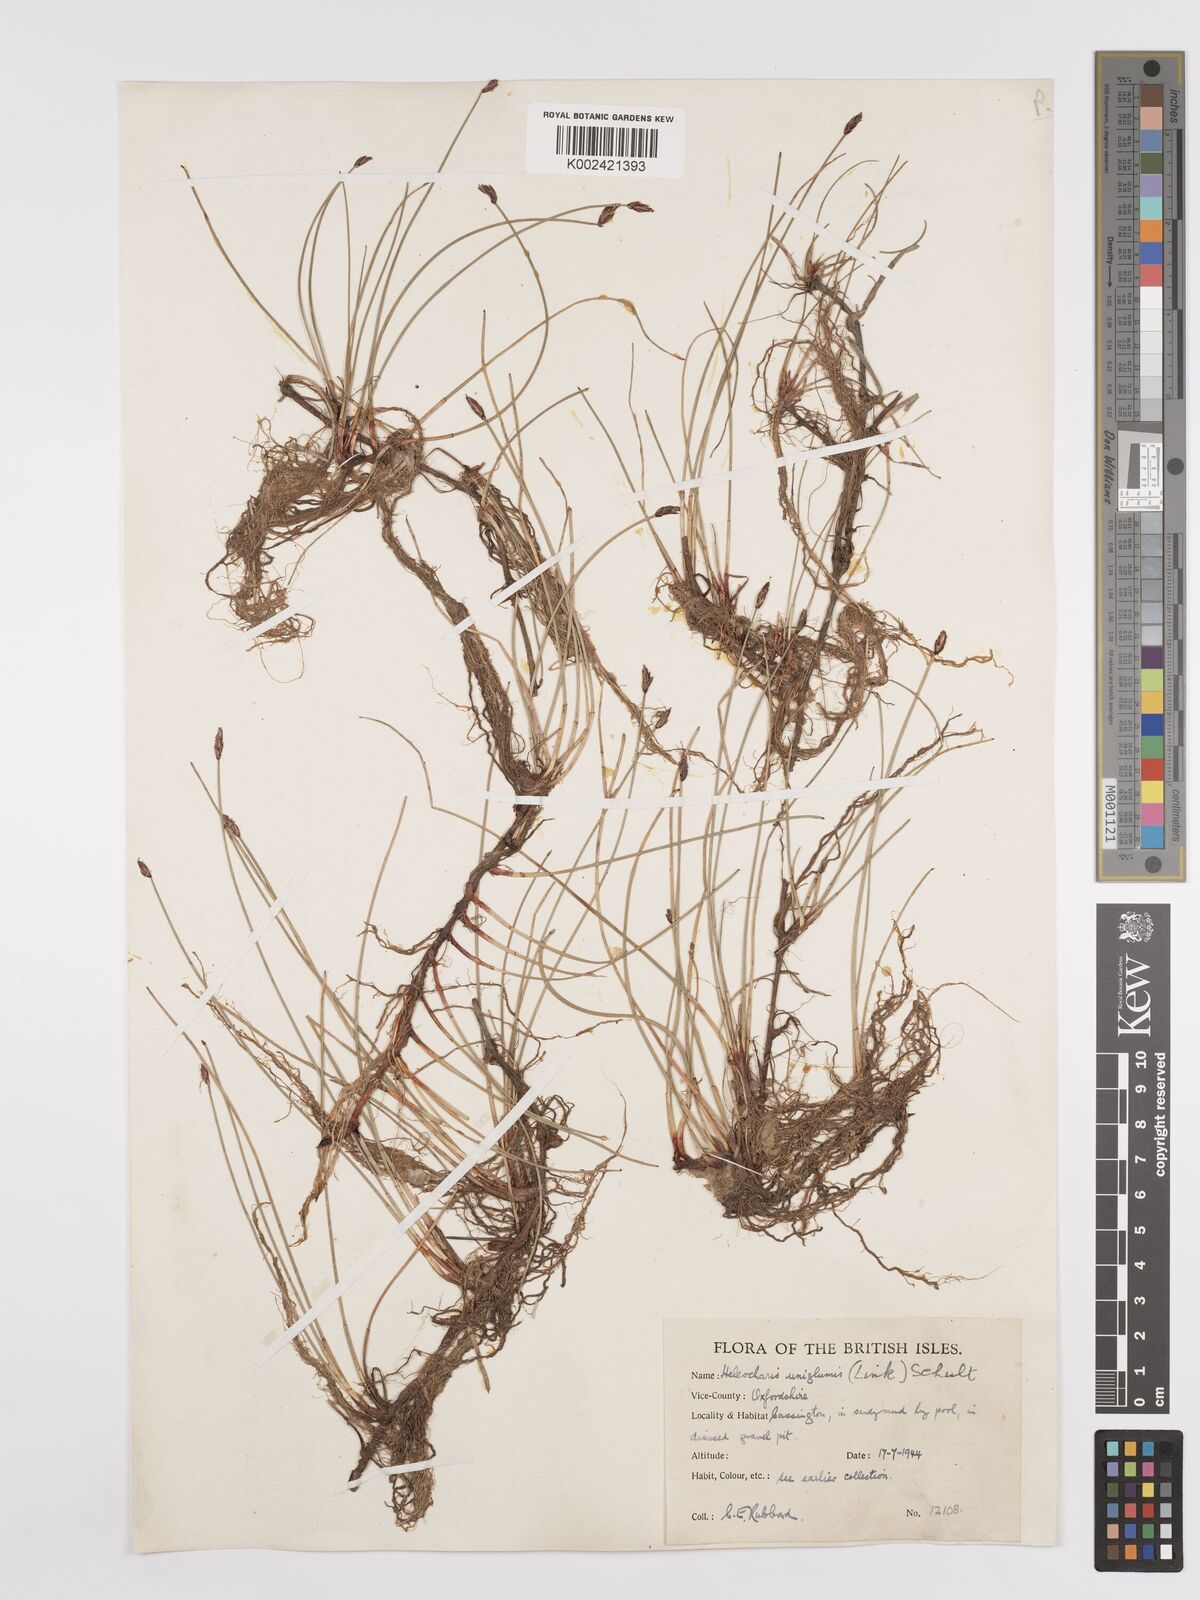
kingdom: Plantae
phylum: Tracheophyta
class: Liliopsida
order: Poales
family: Cyperaceae
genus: Eleocharis
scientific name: Eleocharis uniglumis
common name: Slender spike-rush
